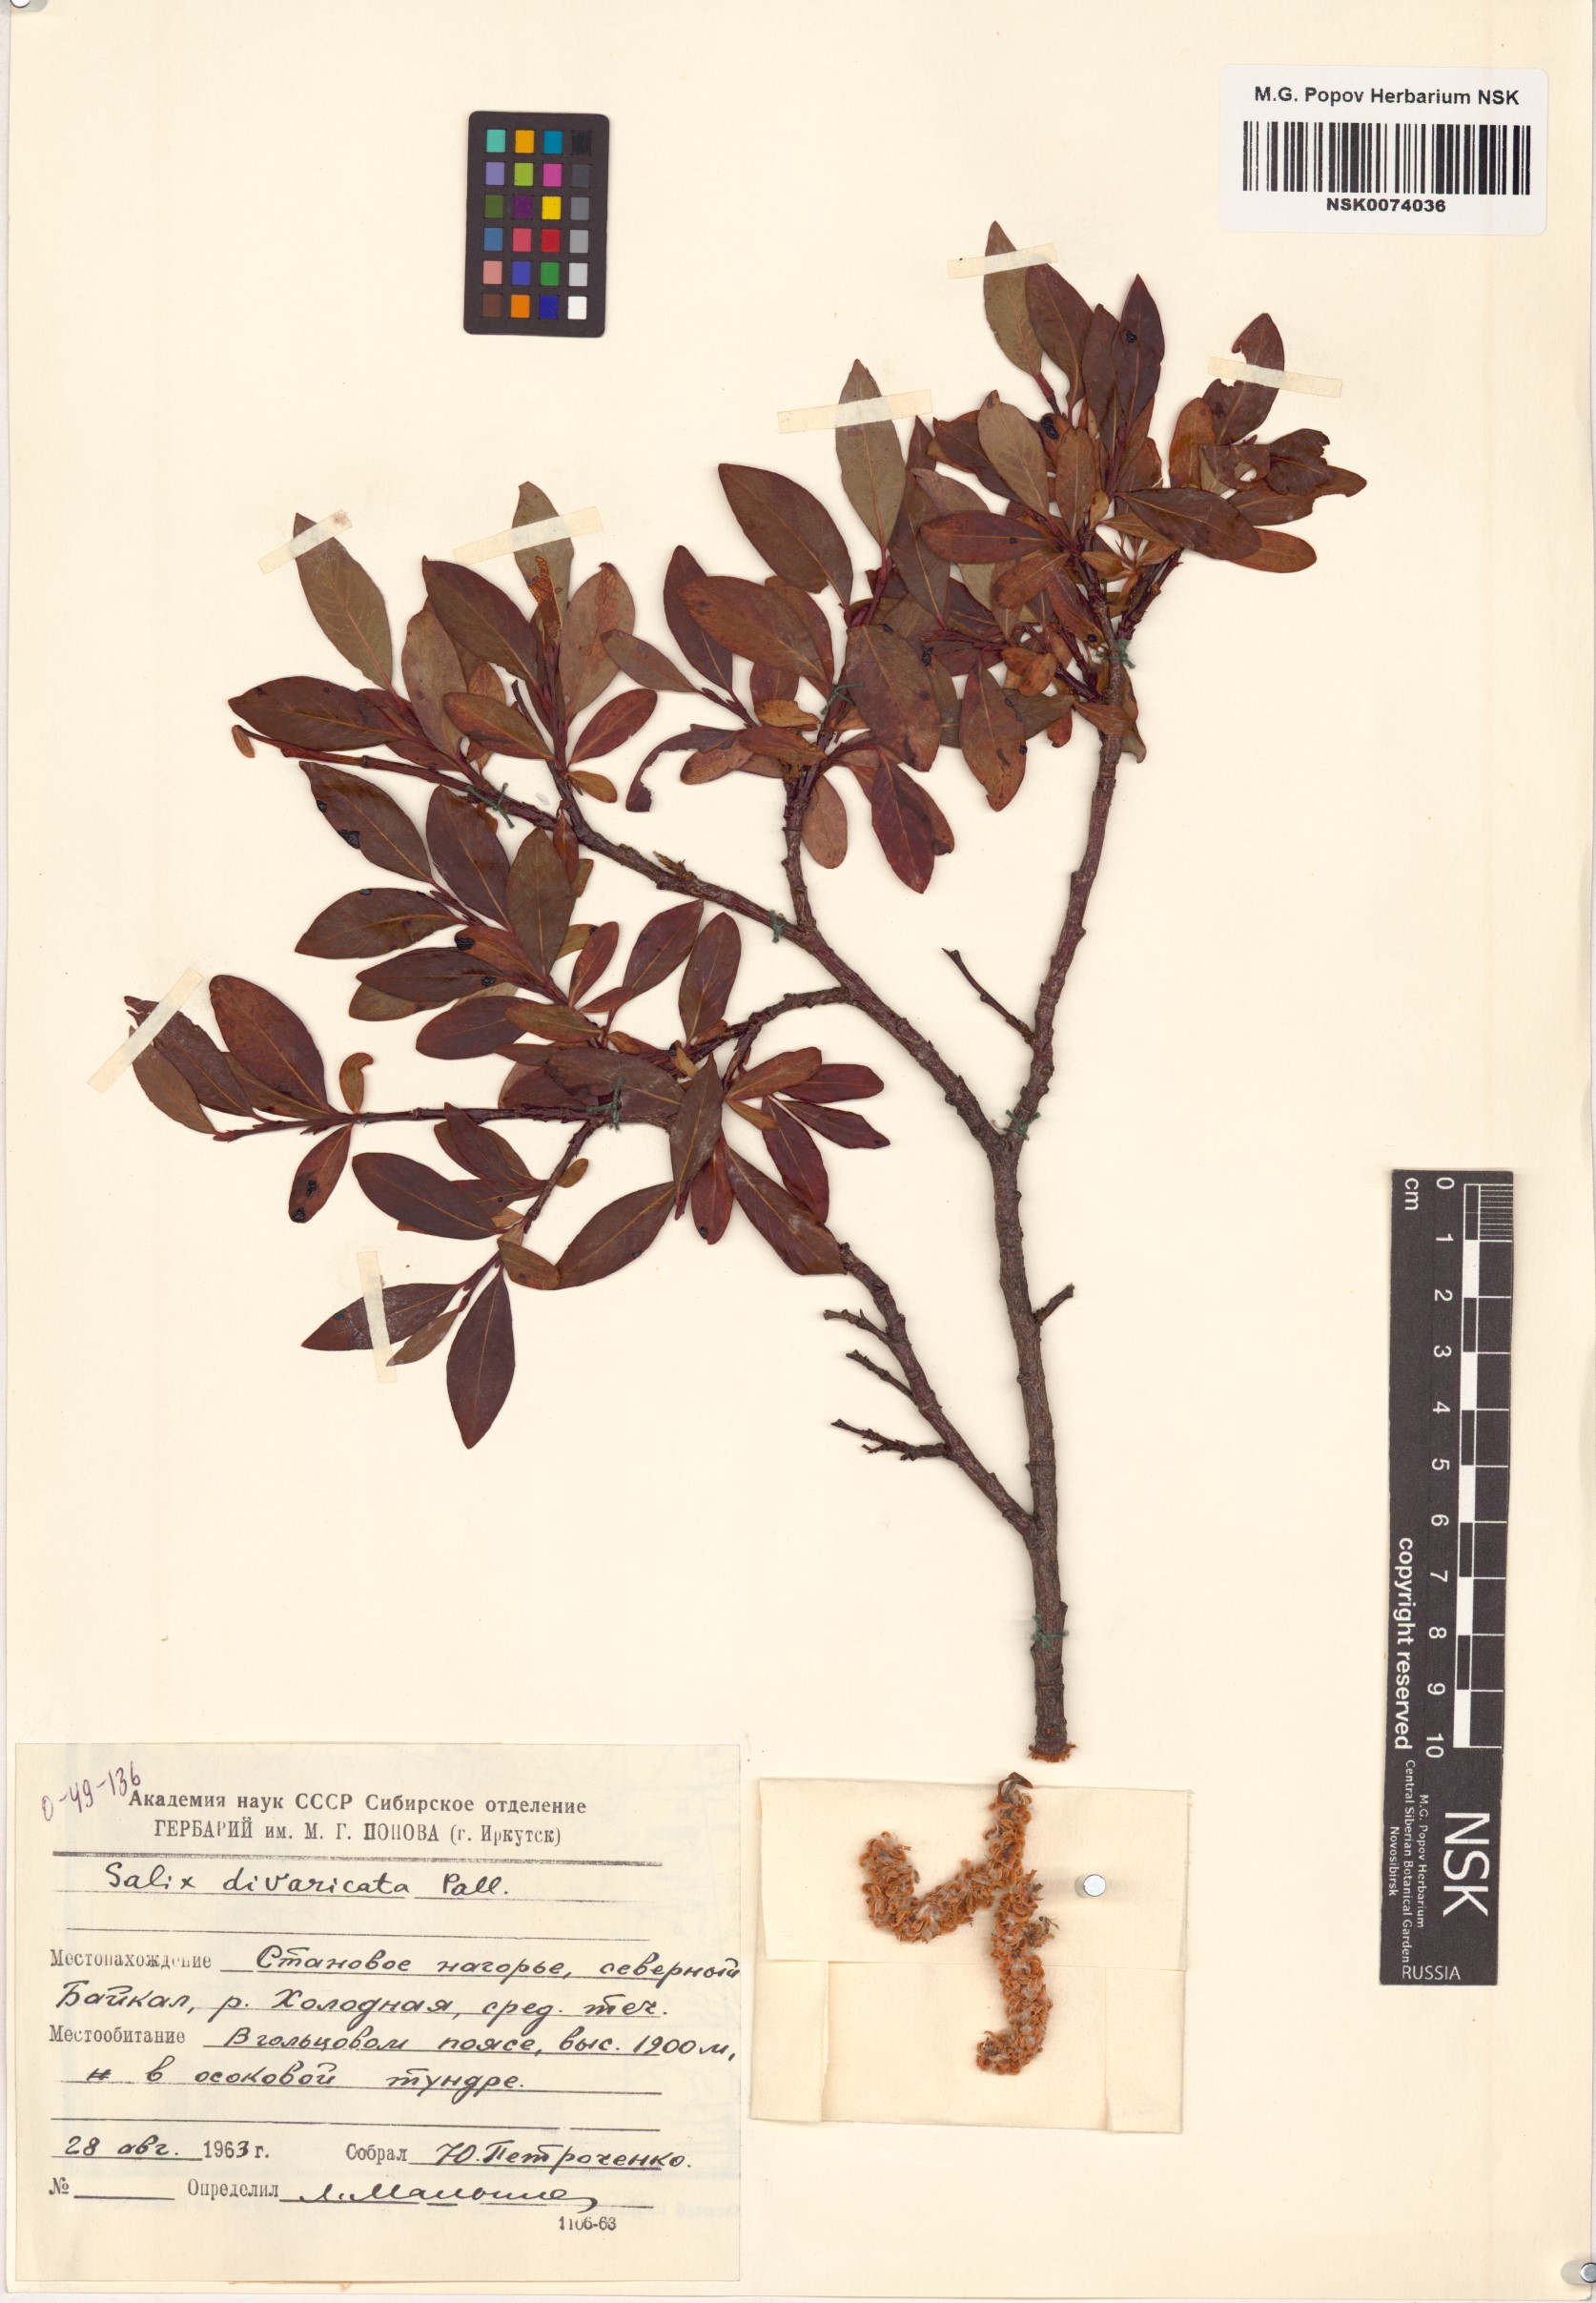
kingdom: Plantae
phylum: Tracheophyta
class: Magnoliopsida
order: Malpighiales
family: Salicaceae
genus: Salix
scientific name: Salix divaricata
